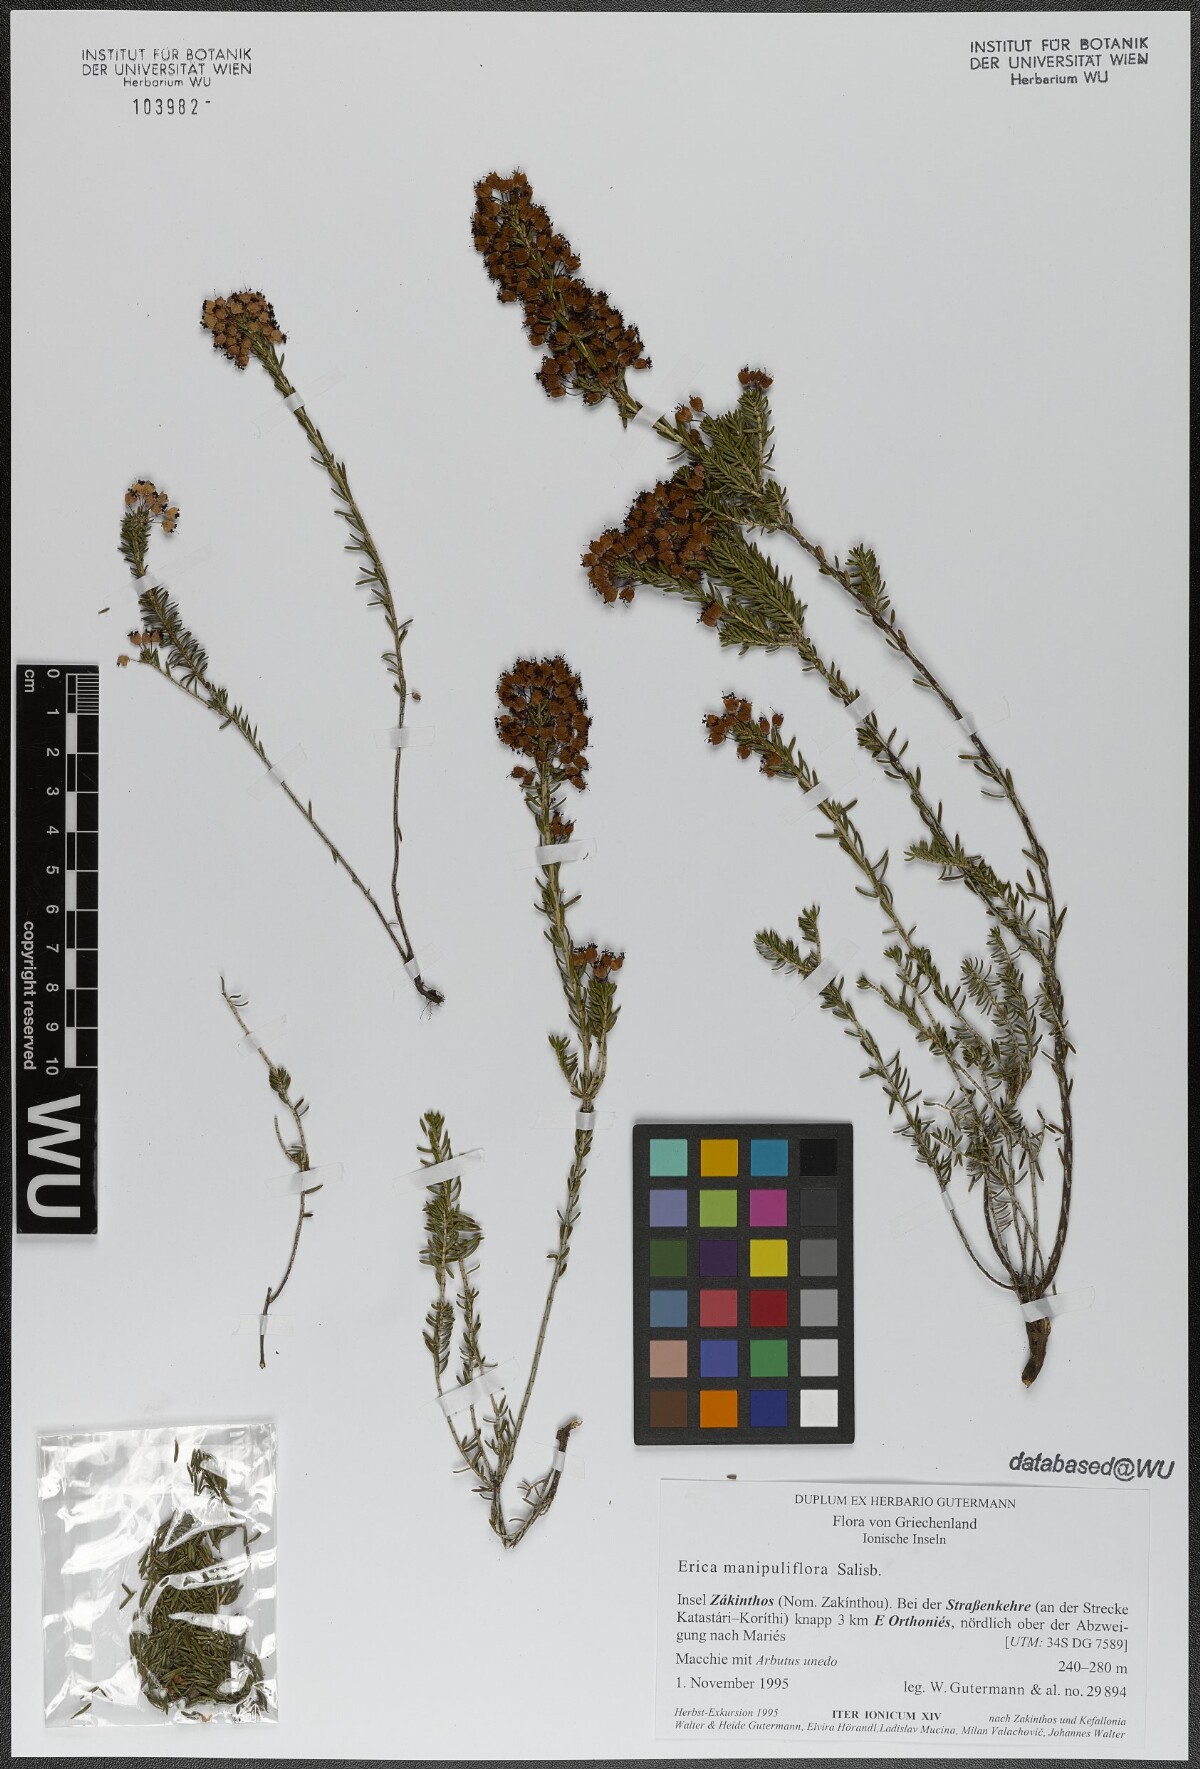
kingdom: Plantae
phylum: Tracheophyta
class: Magnoliopsida
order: Ericales
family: Ericaceae
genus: Erica
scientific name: Erica manipuliflora
